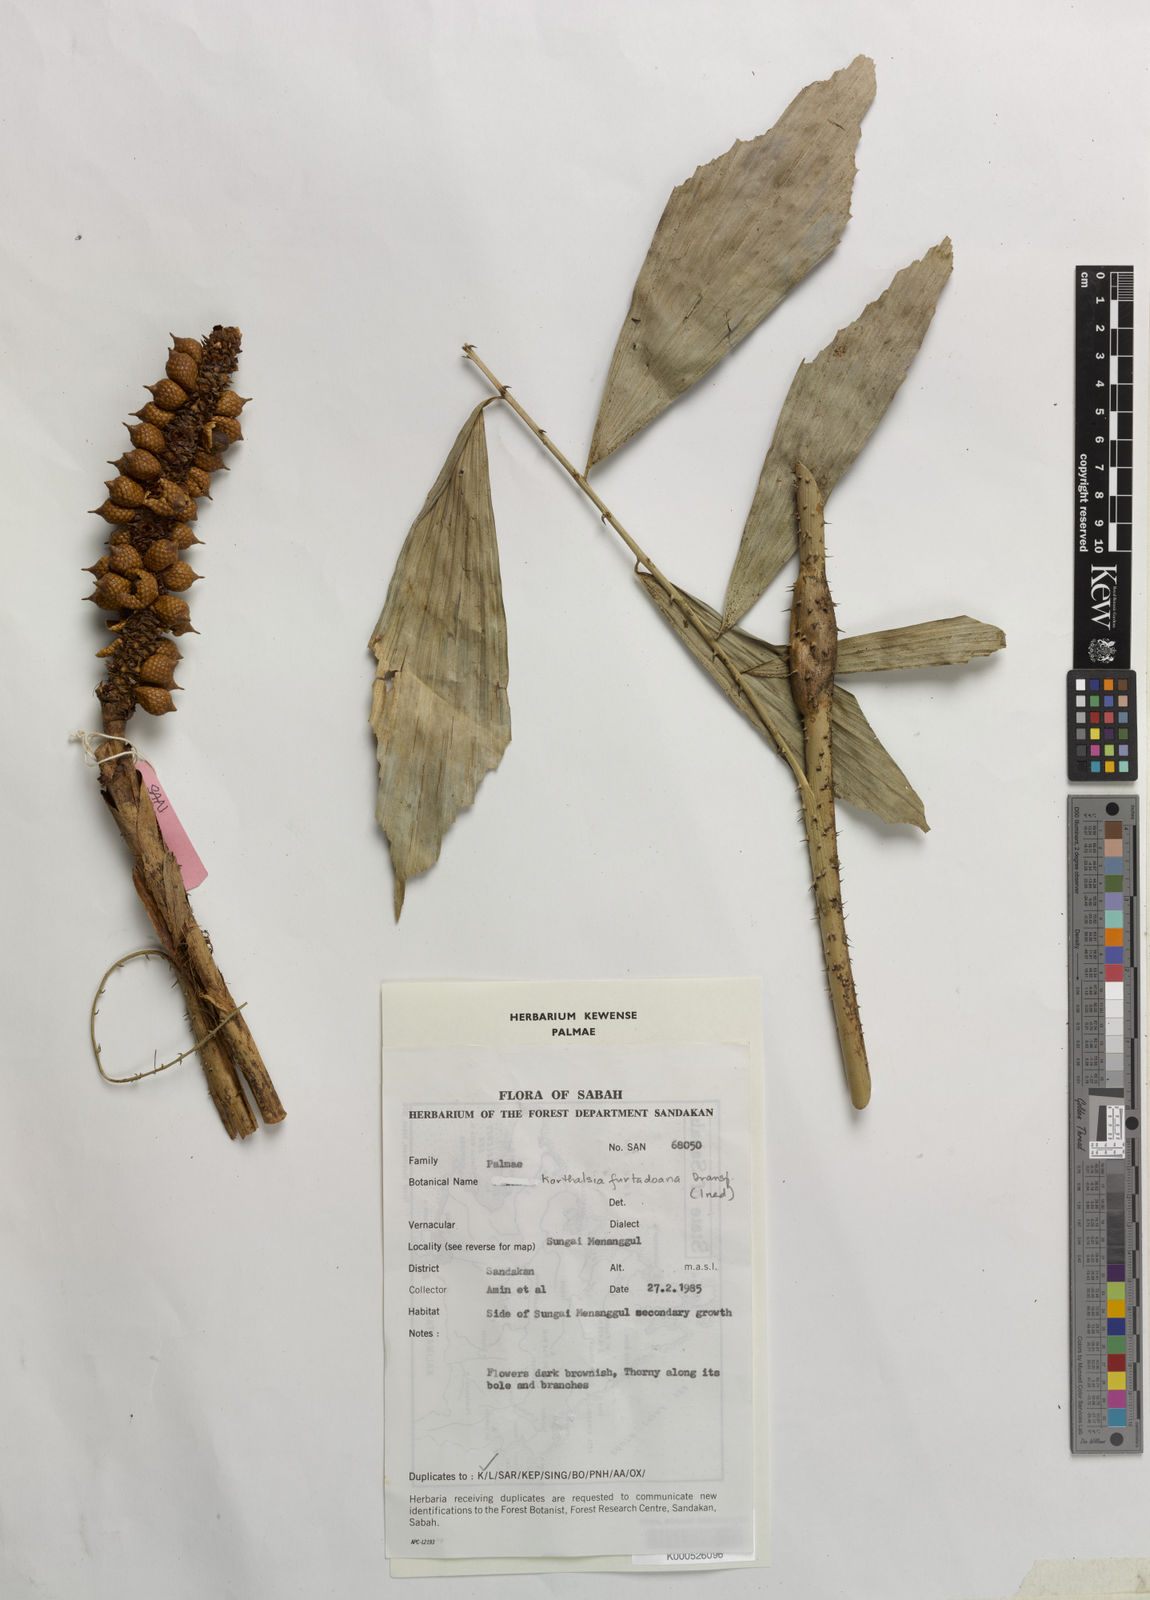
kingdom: Plantae
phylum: Tracheophyta
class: Liliopsida
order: Arecales
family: Arecaceae
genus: Korthalsia
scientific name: Korthalsia furtadoana
